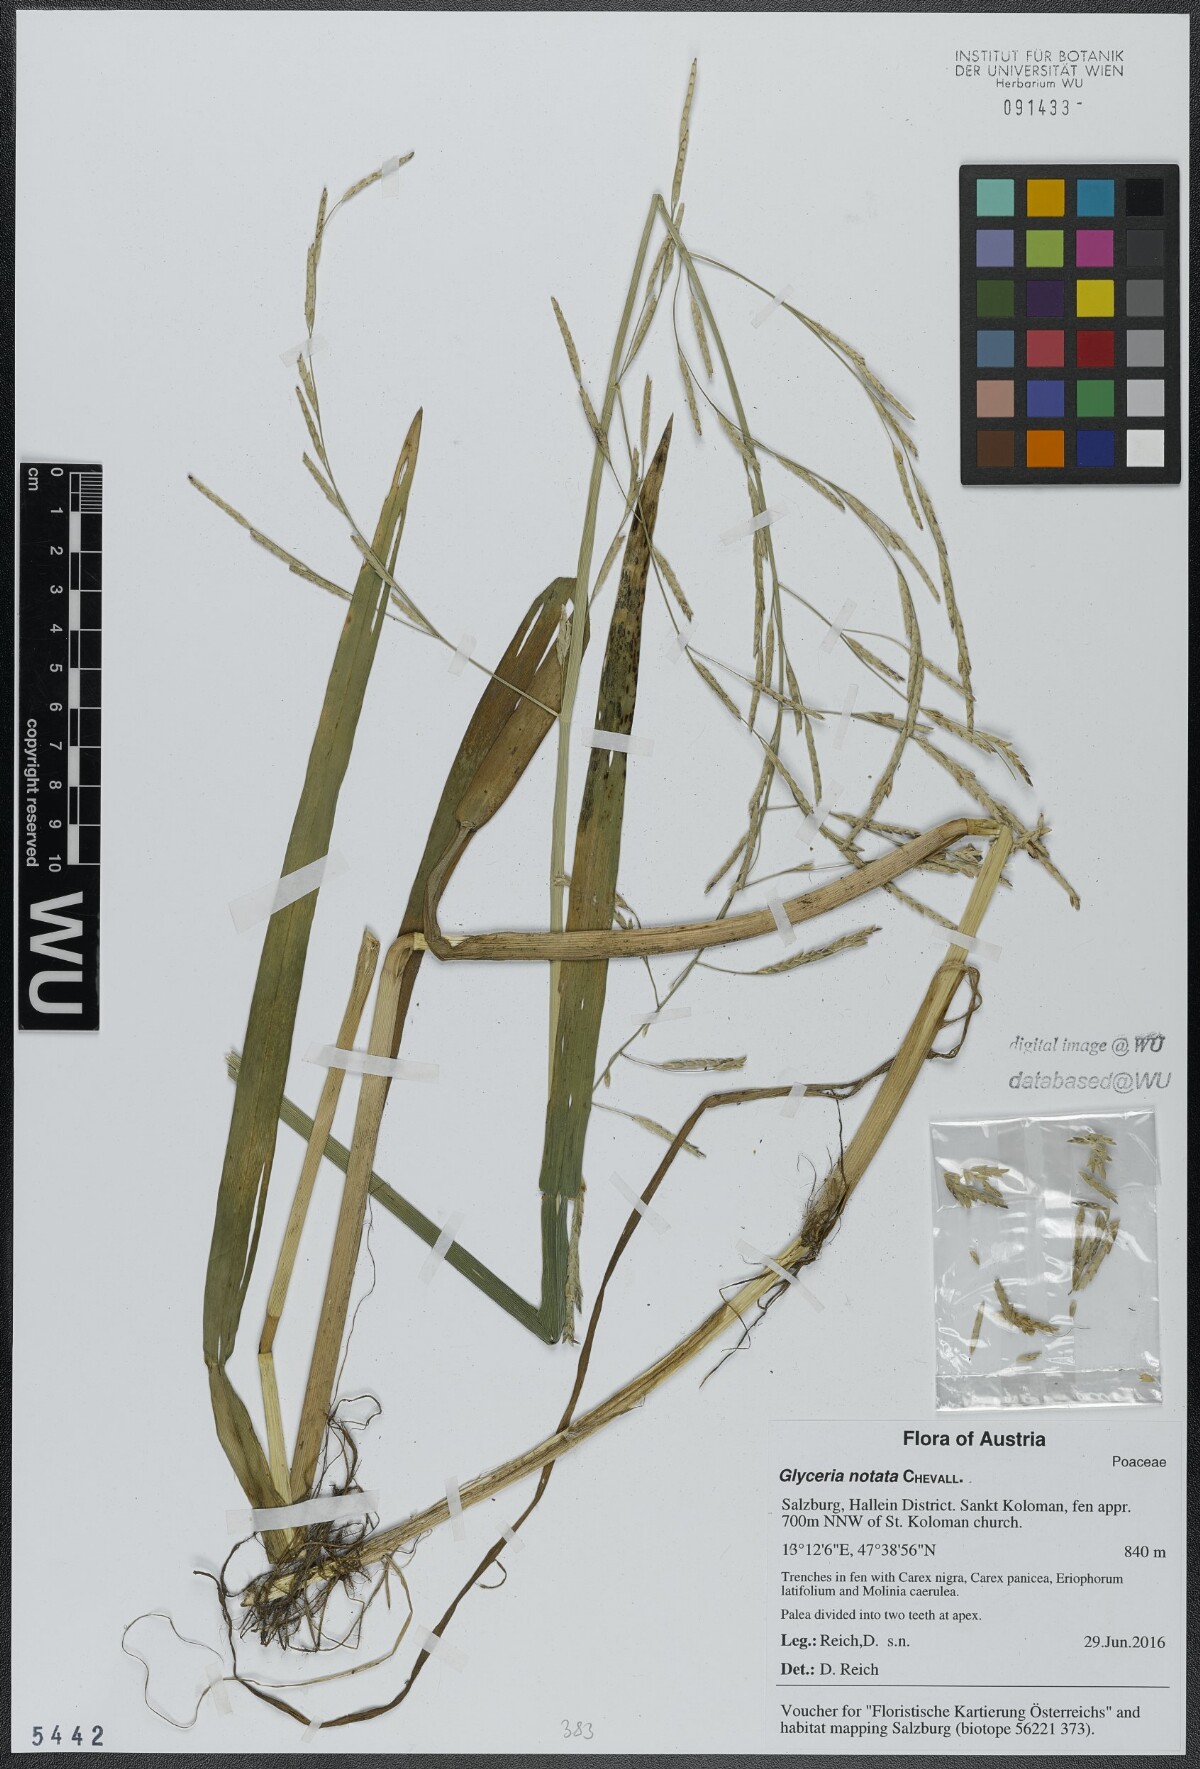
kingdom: Plantae
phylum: Tracheophyta
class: Liliopsida
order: Poales
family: Poaceae
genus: Glyceria
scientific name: Glyceria notata
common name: Plicate sweet-grass
